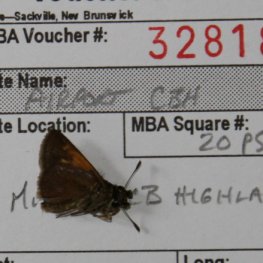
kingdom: Animalia
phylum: Arthropoda
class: Insecta
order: Lepidoptera
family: Hesperiidae
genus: Polites
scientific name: Polites themistocles
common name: Tawny-edged Skipper
